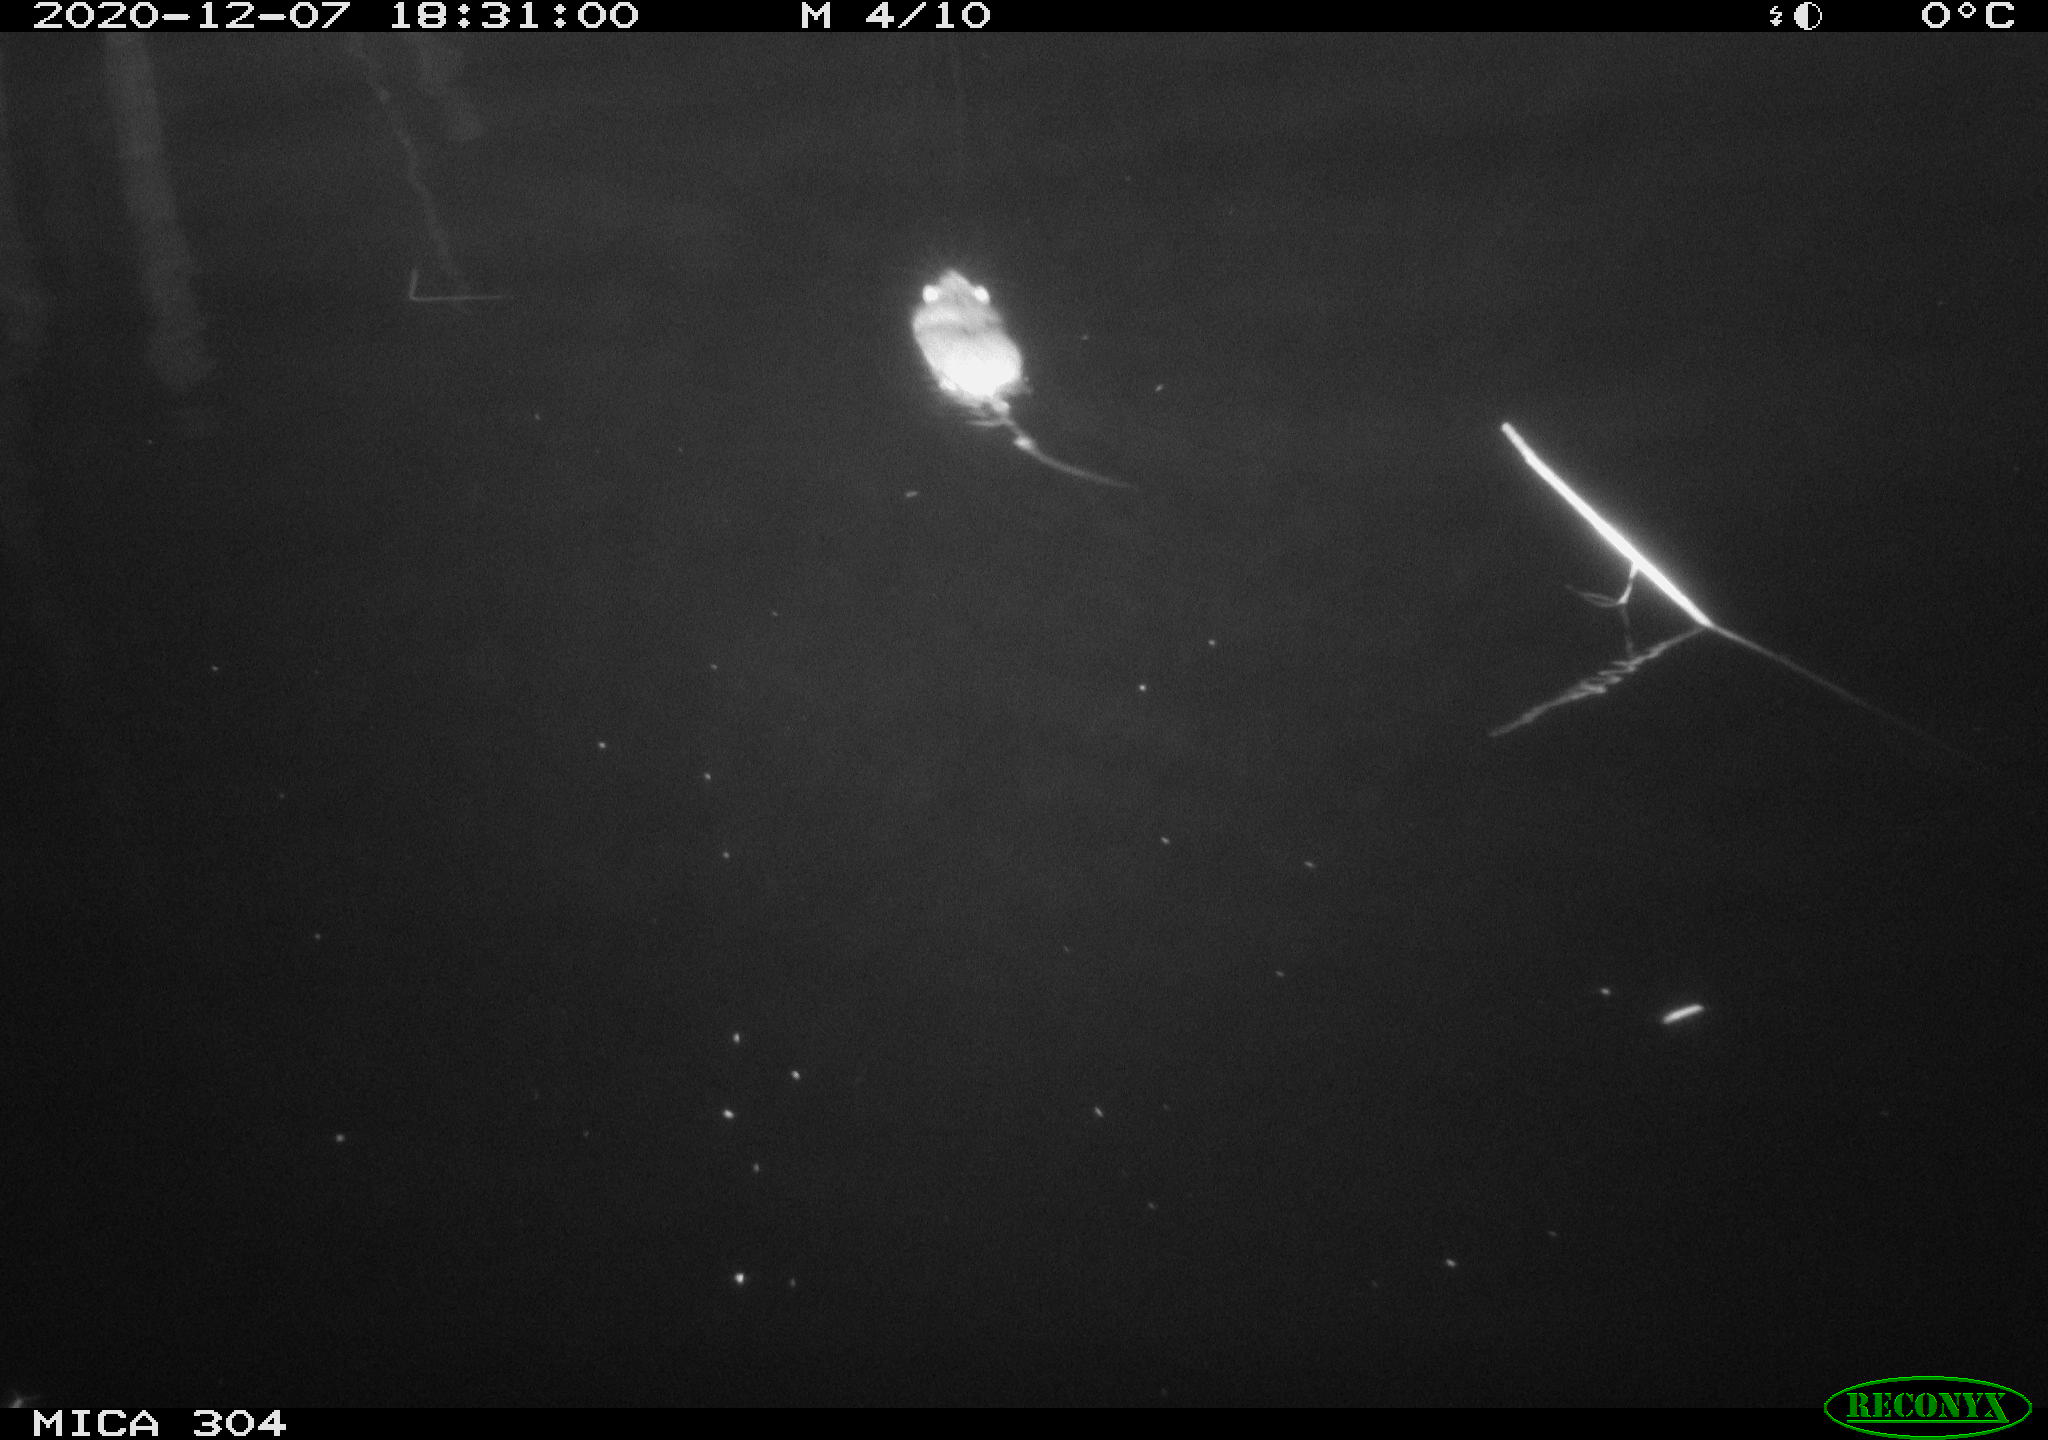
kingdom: Animalia
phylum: Chordata
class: Mammalia
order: Rodentia
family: Muridae
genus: Rattus
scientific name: Rattus norvegicus
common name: Brown rat
